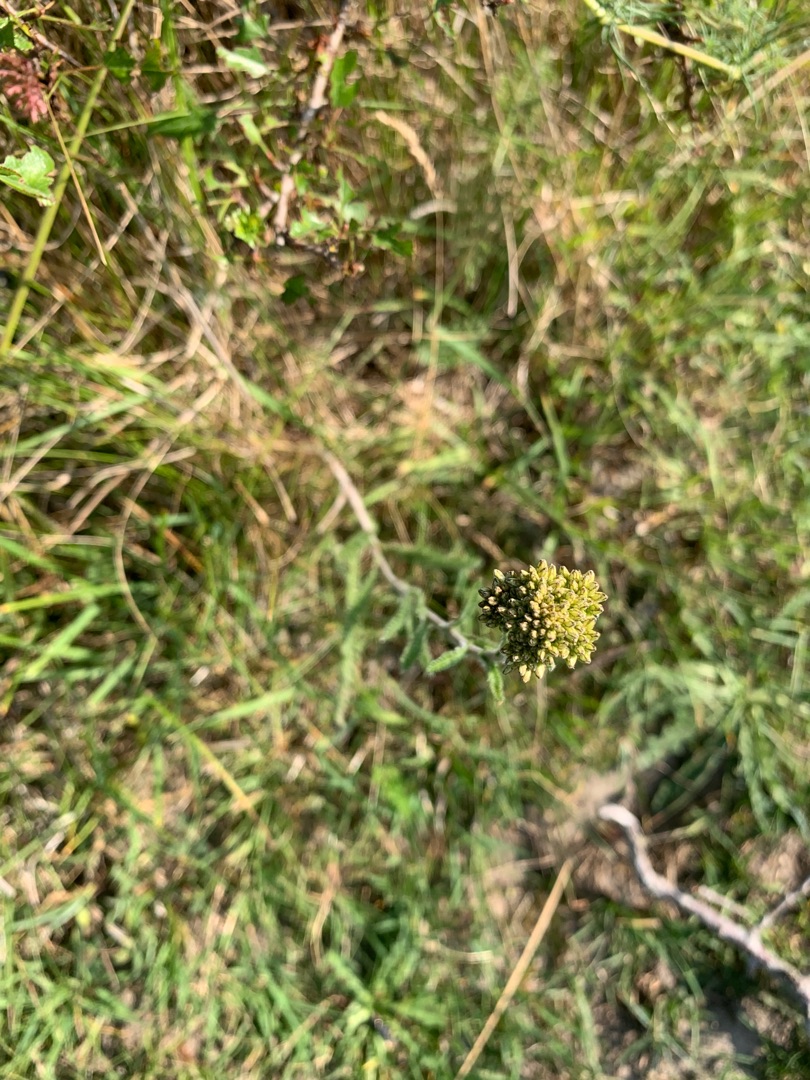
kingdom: Plantae
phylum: Tracheophyta
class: Magnoliopsida
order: Asterales
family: Asteraceae
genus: Achillea
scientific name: Achillea millefolium
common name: Almindelig røllike
